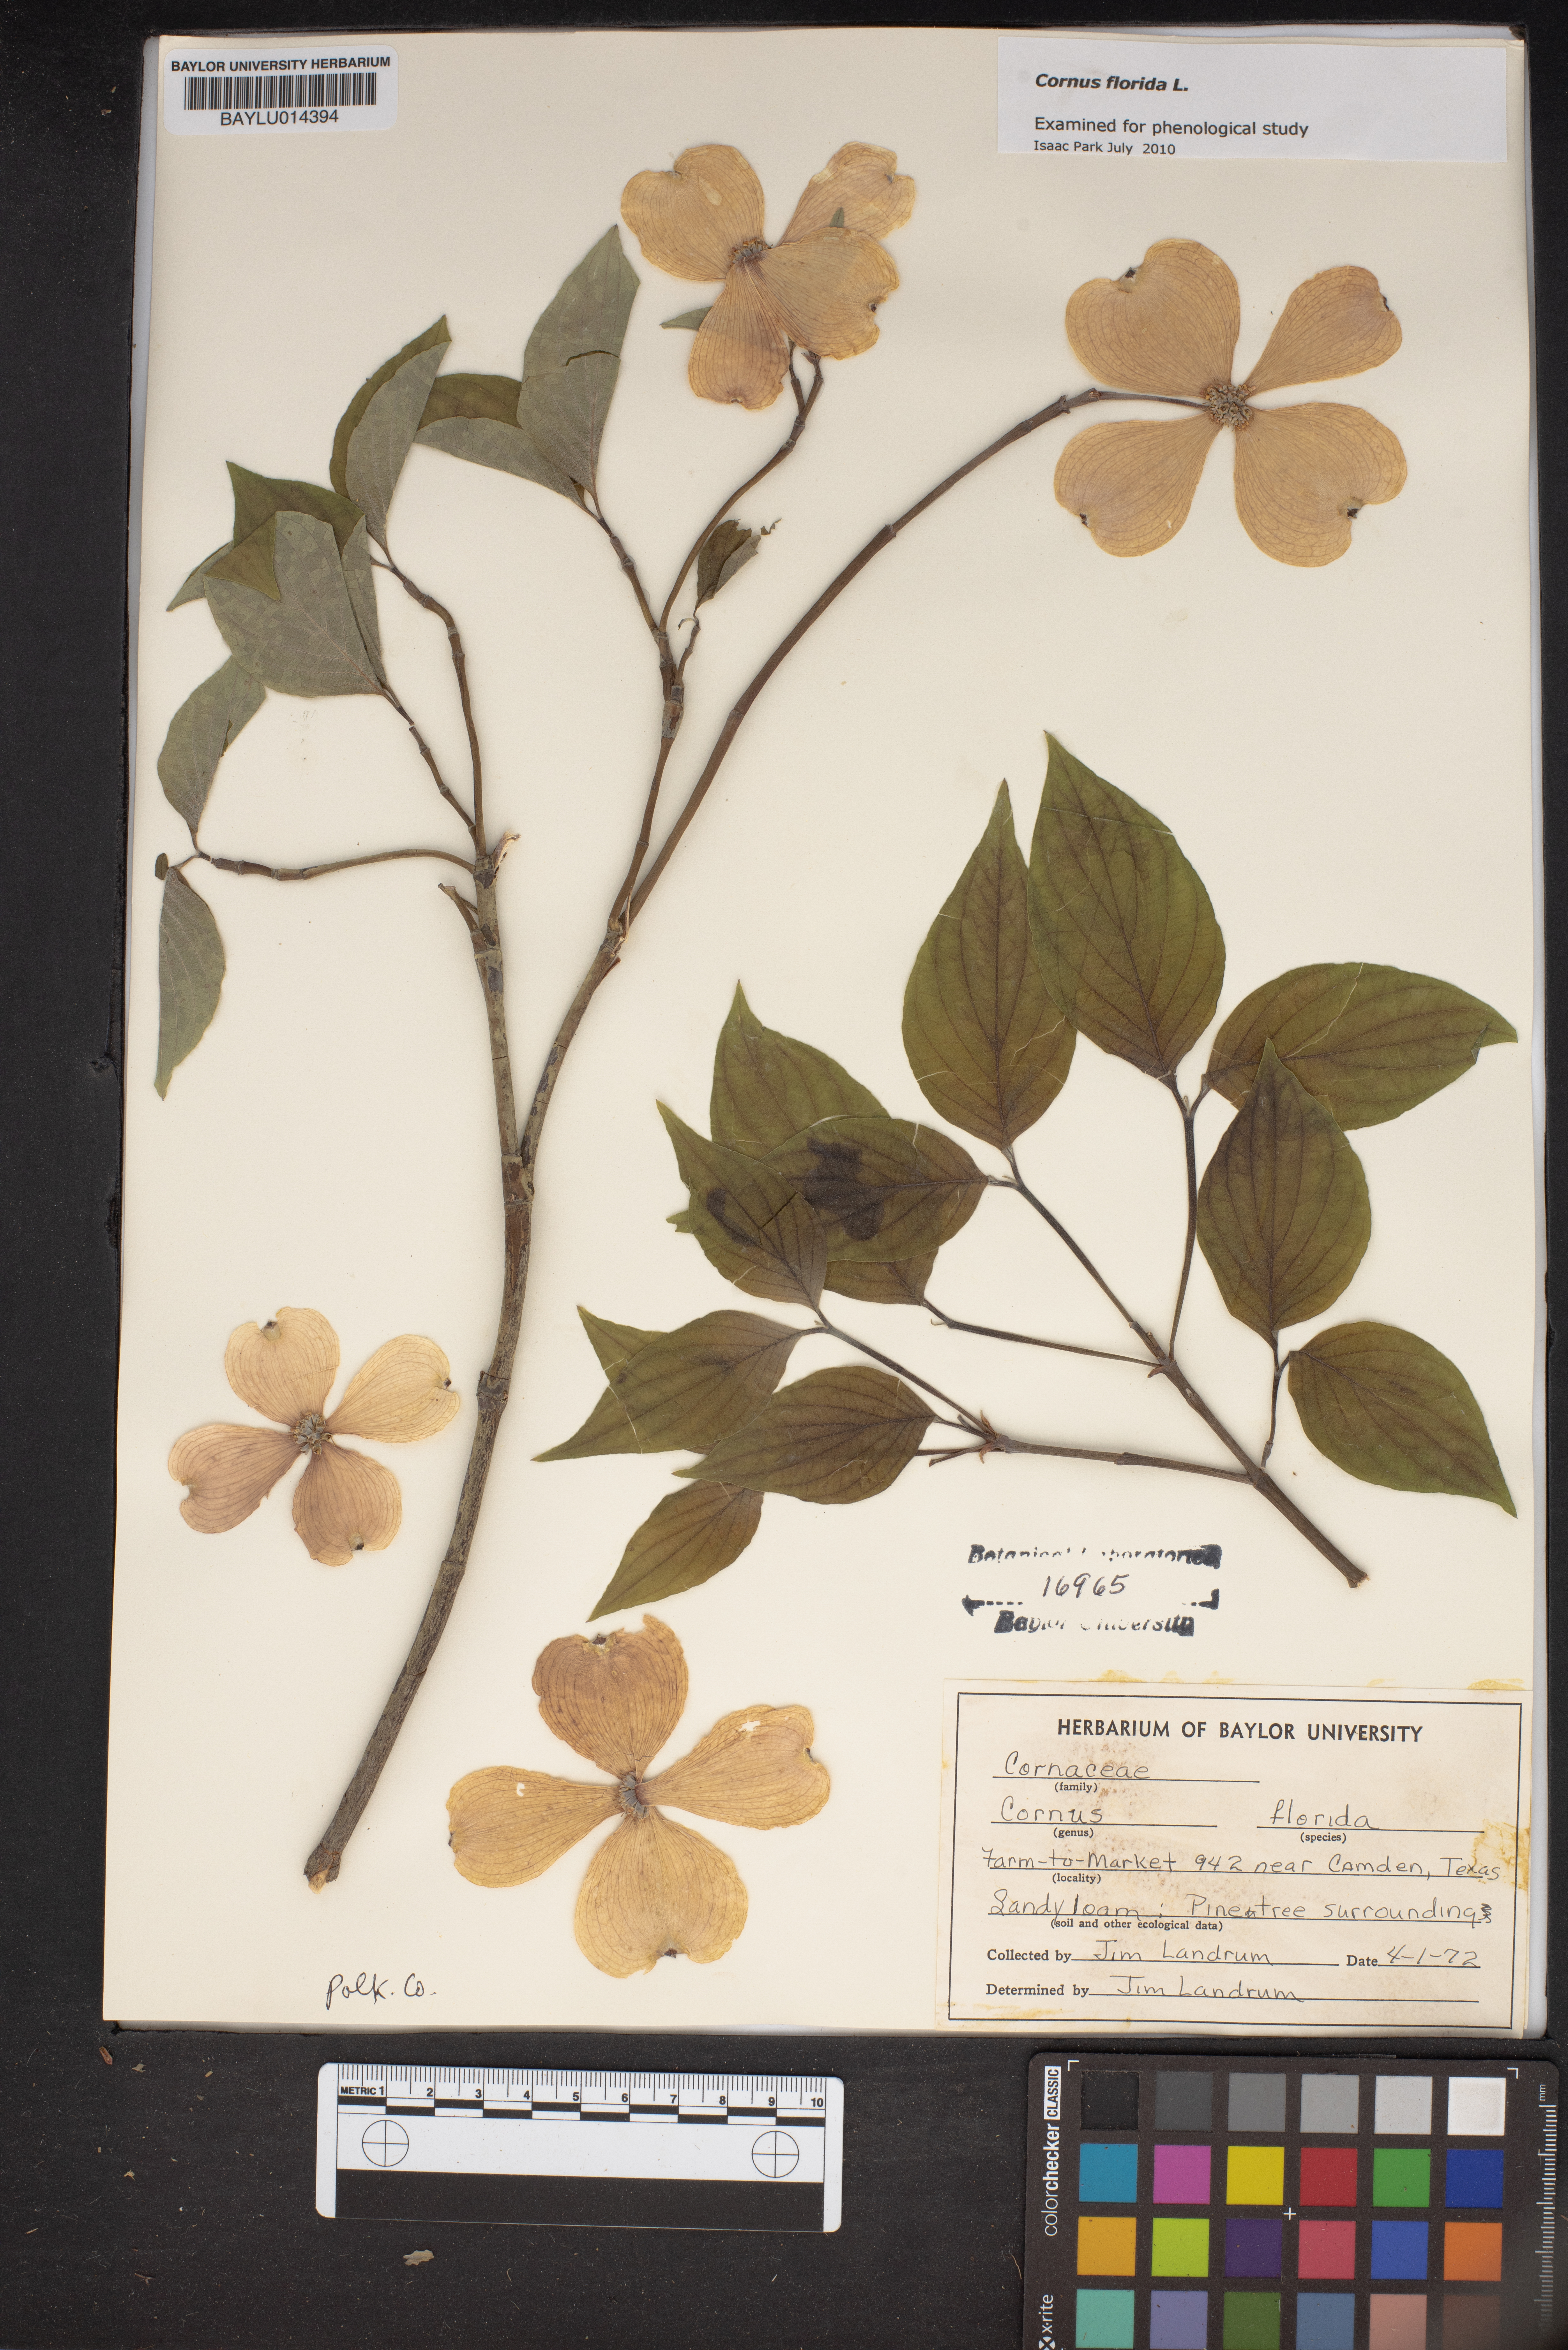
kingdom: Plantae
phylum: Tracheophyta
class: Magnoliopsida
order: Cornales
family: Cornaceae
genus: Cornus
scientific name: Cornus florida
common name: Flowering dogwood
